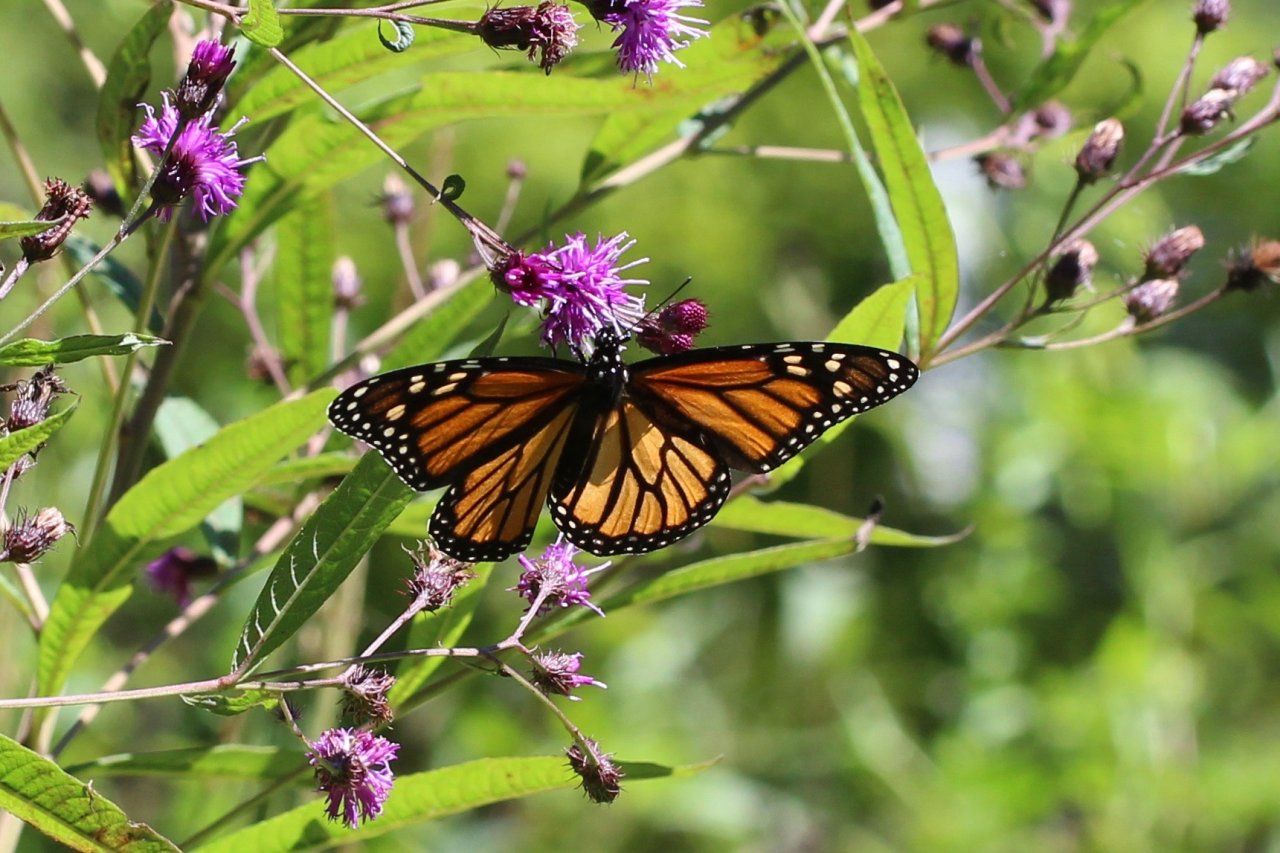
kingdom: Animalia
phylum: Arthropoda
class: Insecta
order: Lepidoptera
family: Nymphalidae
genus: Danaus
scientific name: Danaus plexippus
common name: Monarch
